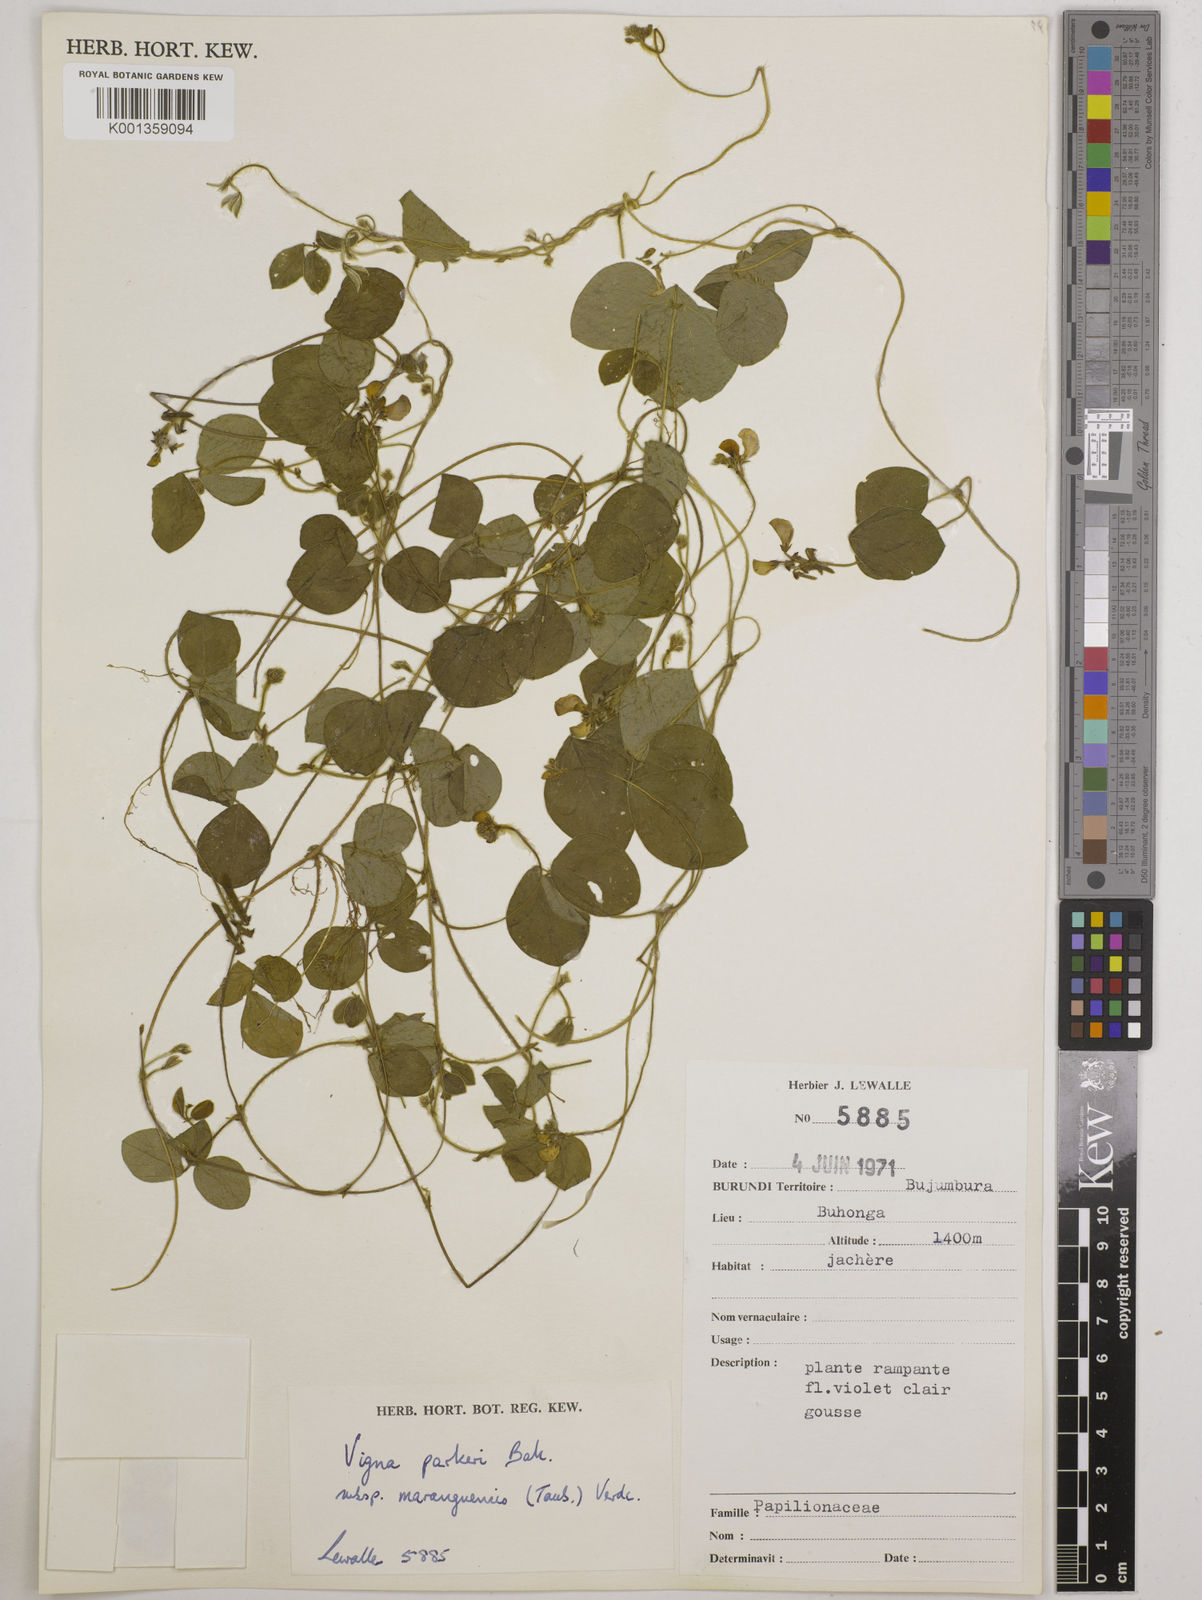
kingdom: Plantae
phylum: Tracheophyta
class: Magnoliopsida
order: Fabales
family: Fabaceae
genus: Vigna
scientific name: Vigna
